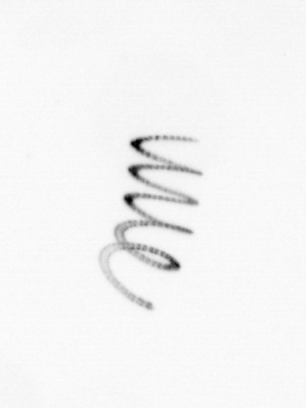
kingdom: Chromista
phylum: Ochrophyta
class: Bacillariophyceae
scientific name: Bacillariophyceae
